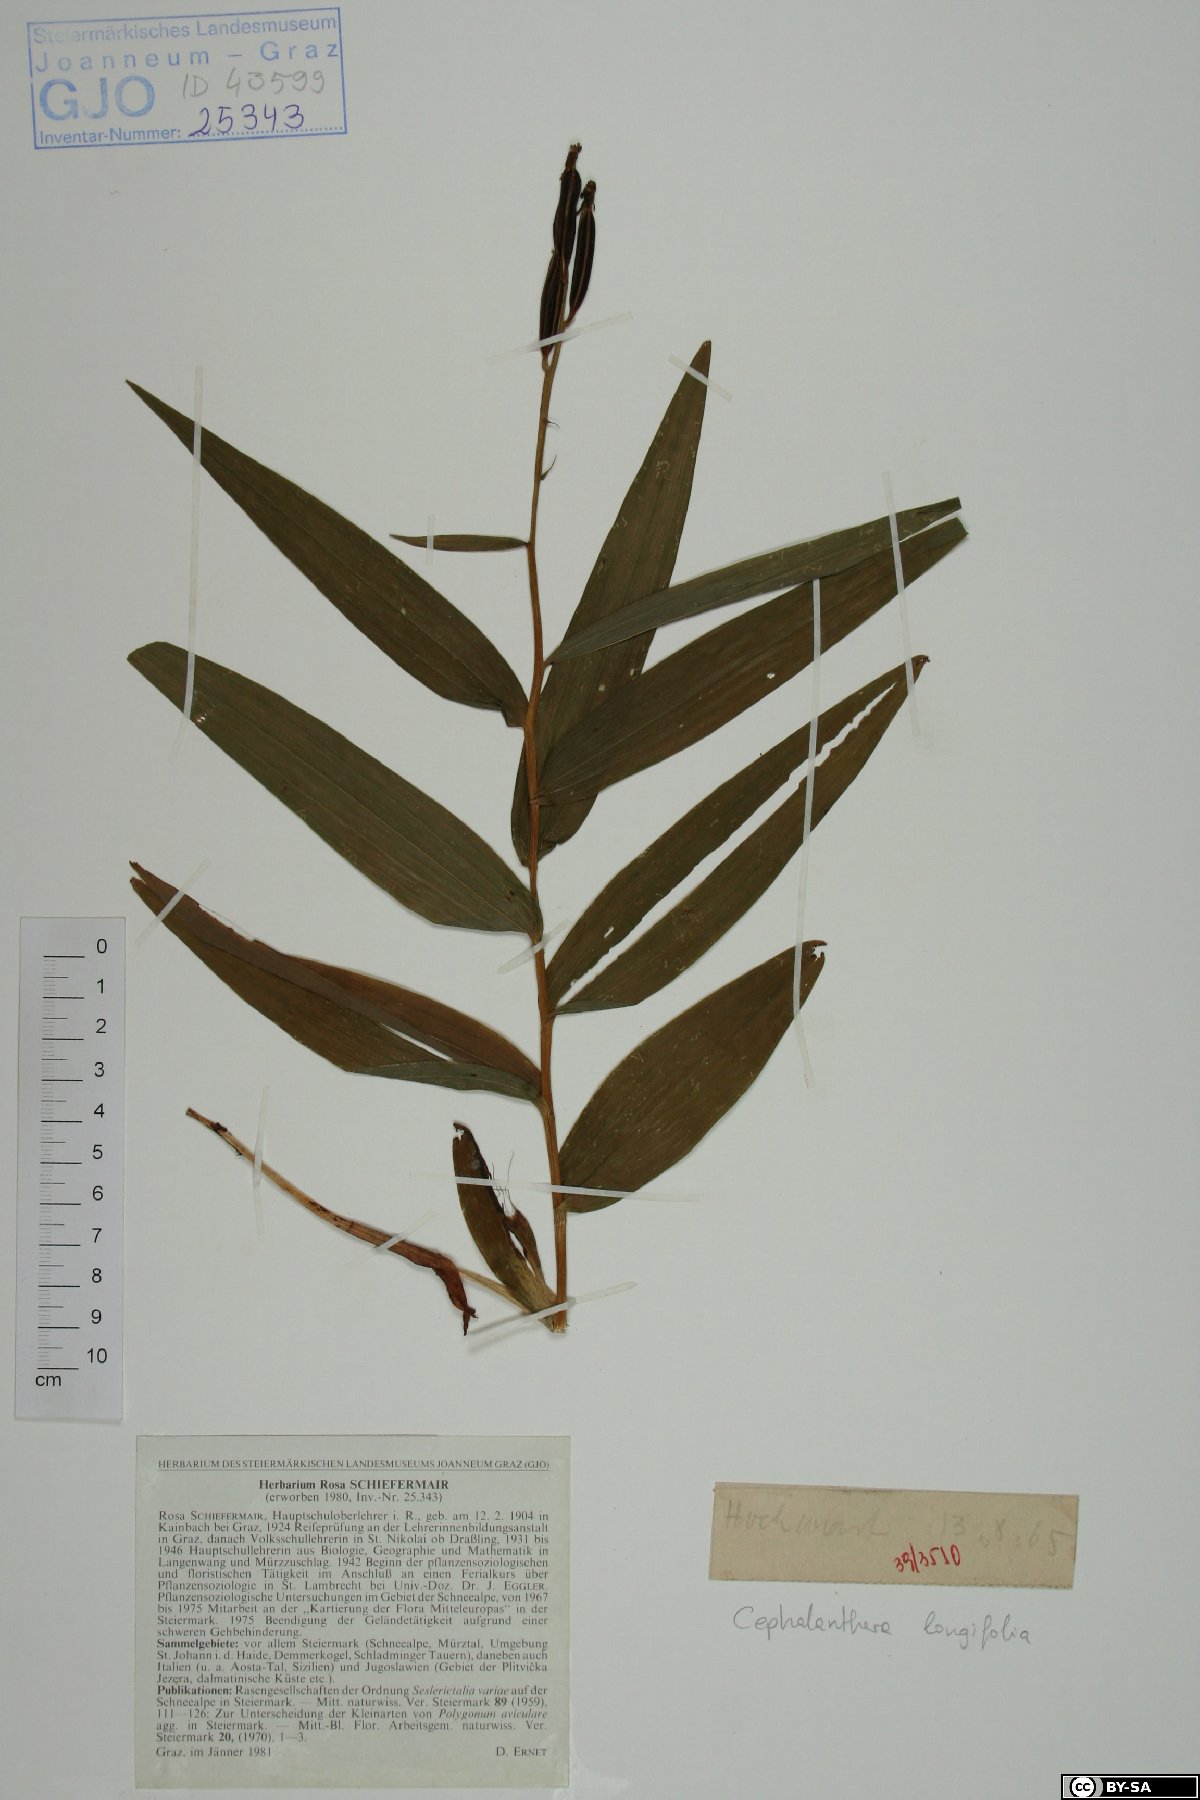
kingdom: Plantae
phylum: Tracheophyta
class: Liliopsida
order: Asparagales
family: Orchidaceae
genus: Cephalanthera
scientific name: Cephalanthera longifolia
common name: Narrow-leaved helleborine
